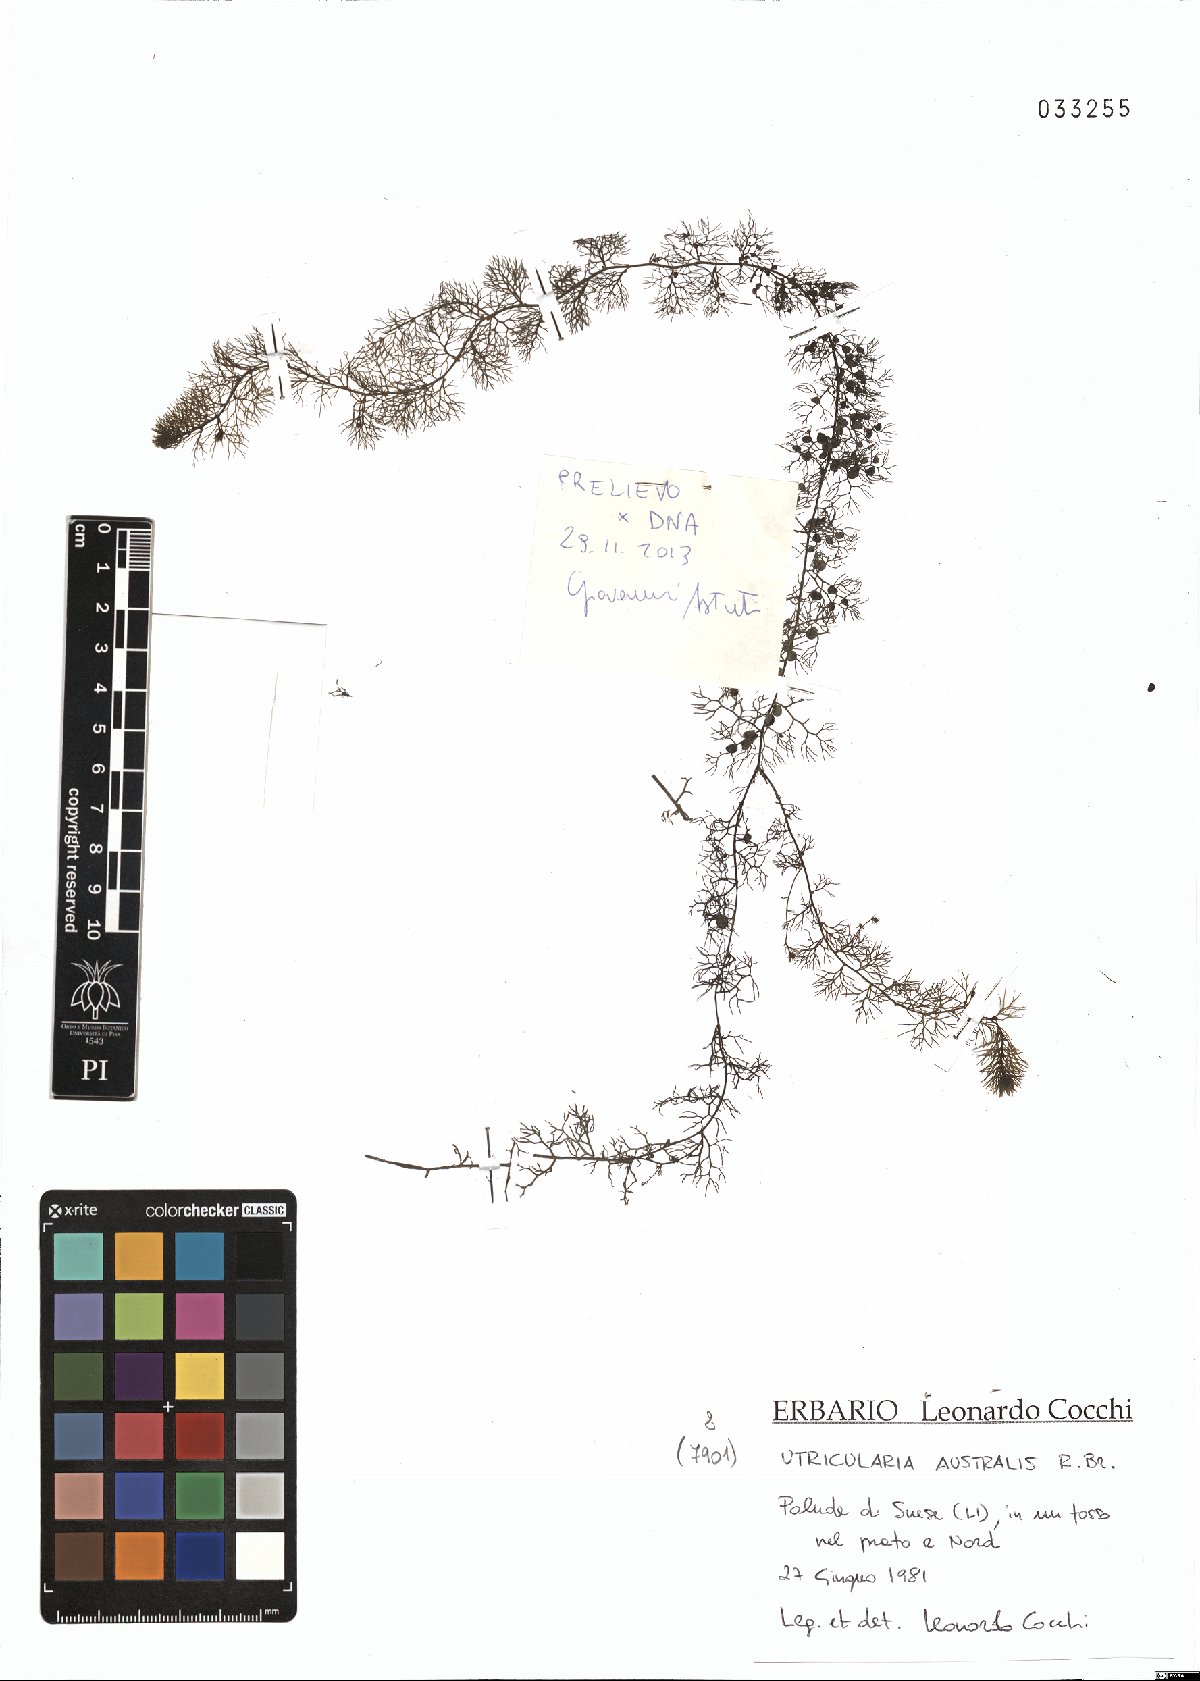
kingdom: Plantae
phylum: Tracheophyta
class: Magnoliopsida
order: Lamiales
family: Lentibulariaceae
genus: Utricularia
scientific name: Utricularia australis
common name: Bladderwort
